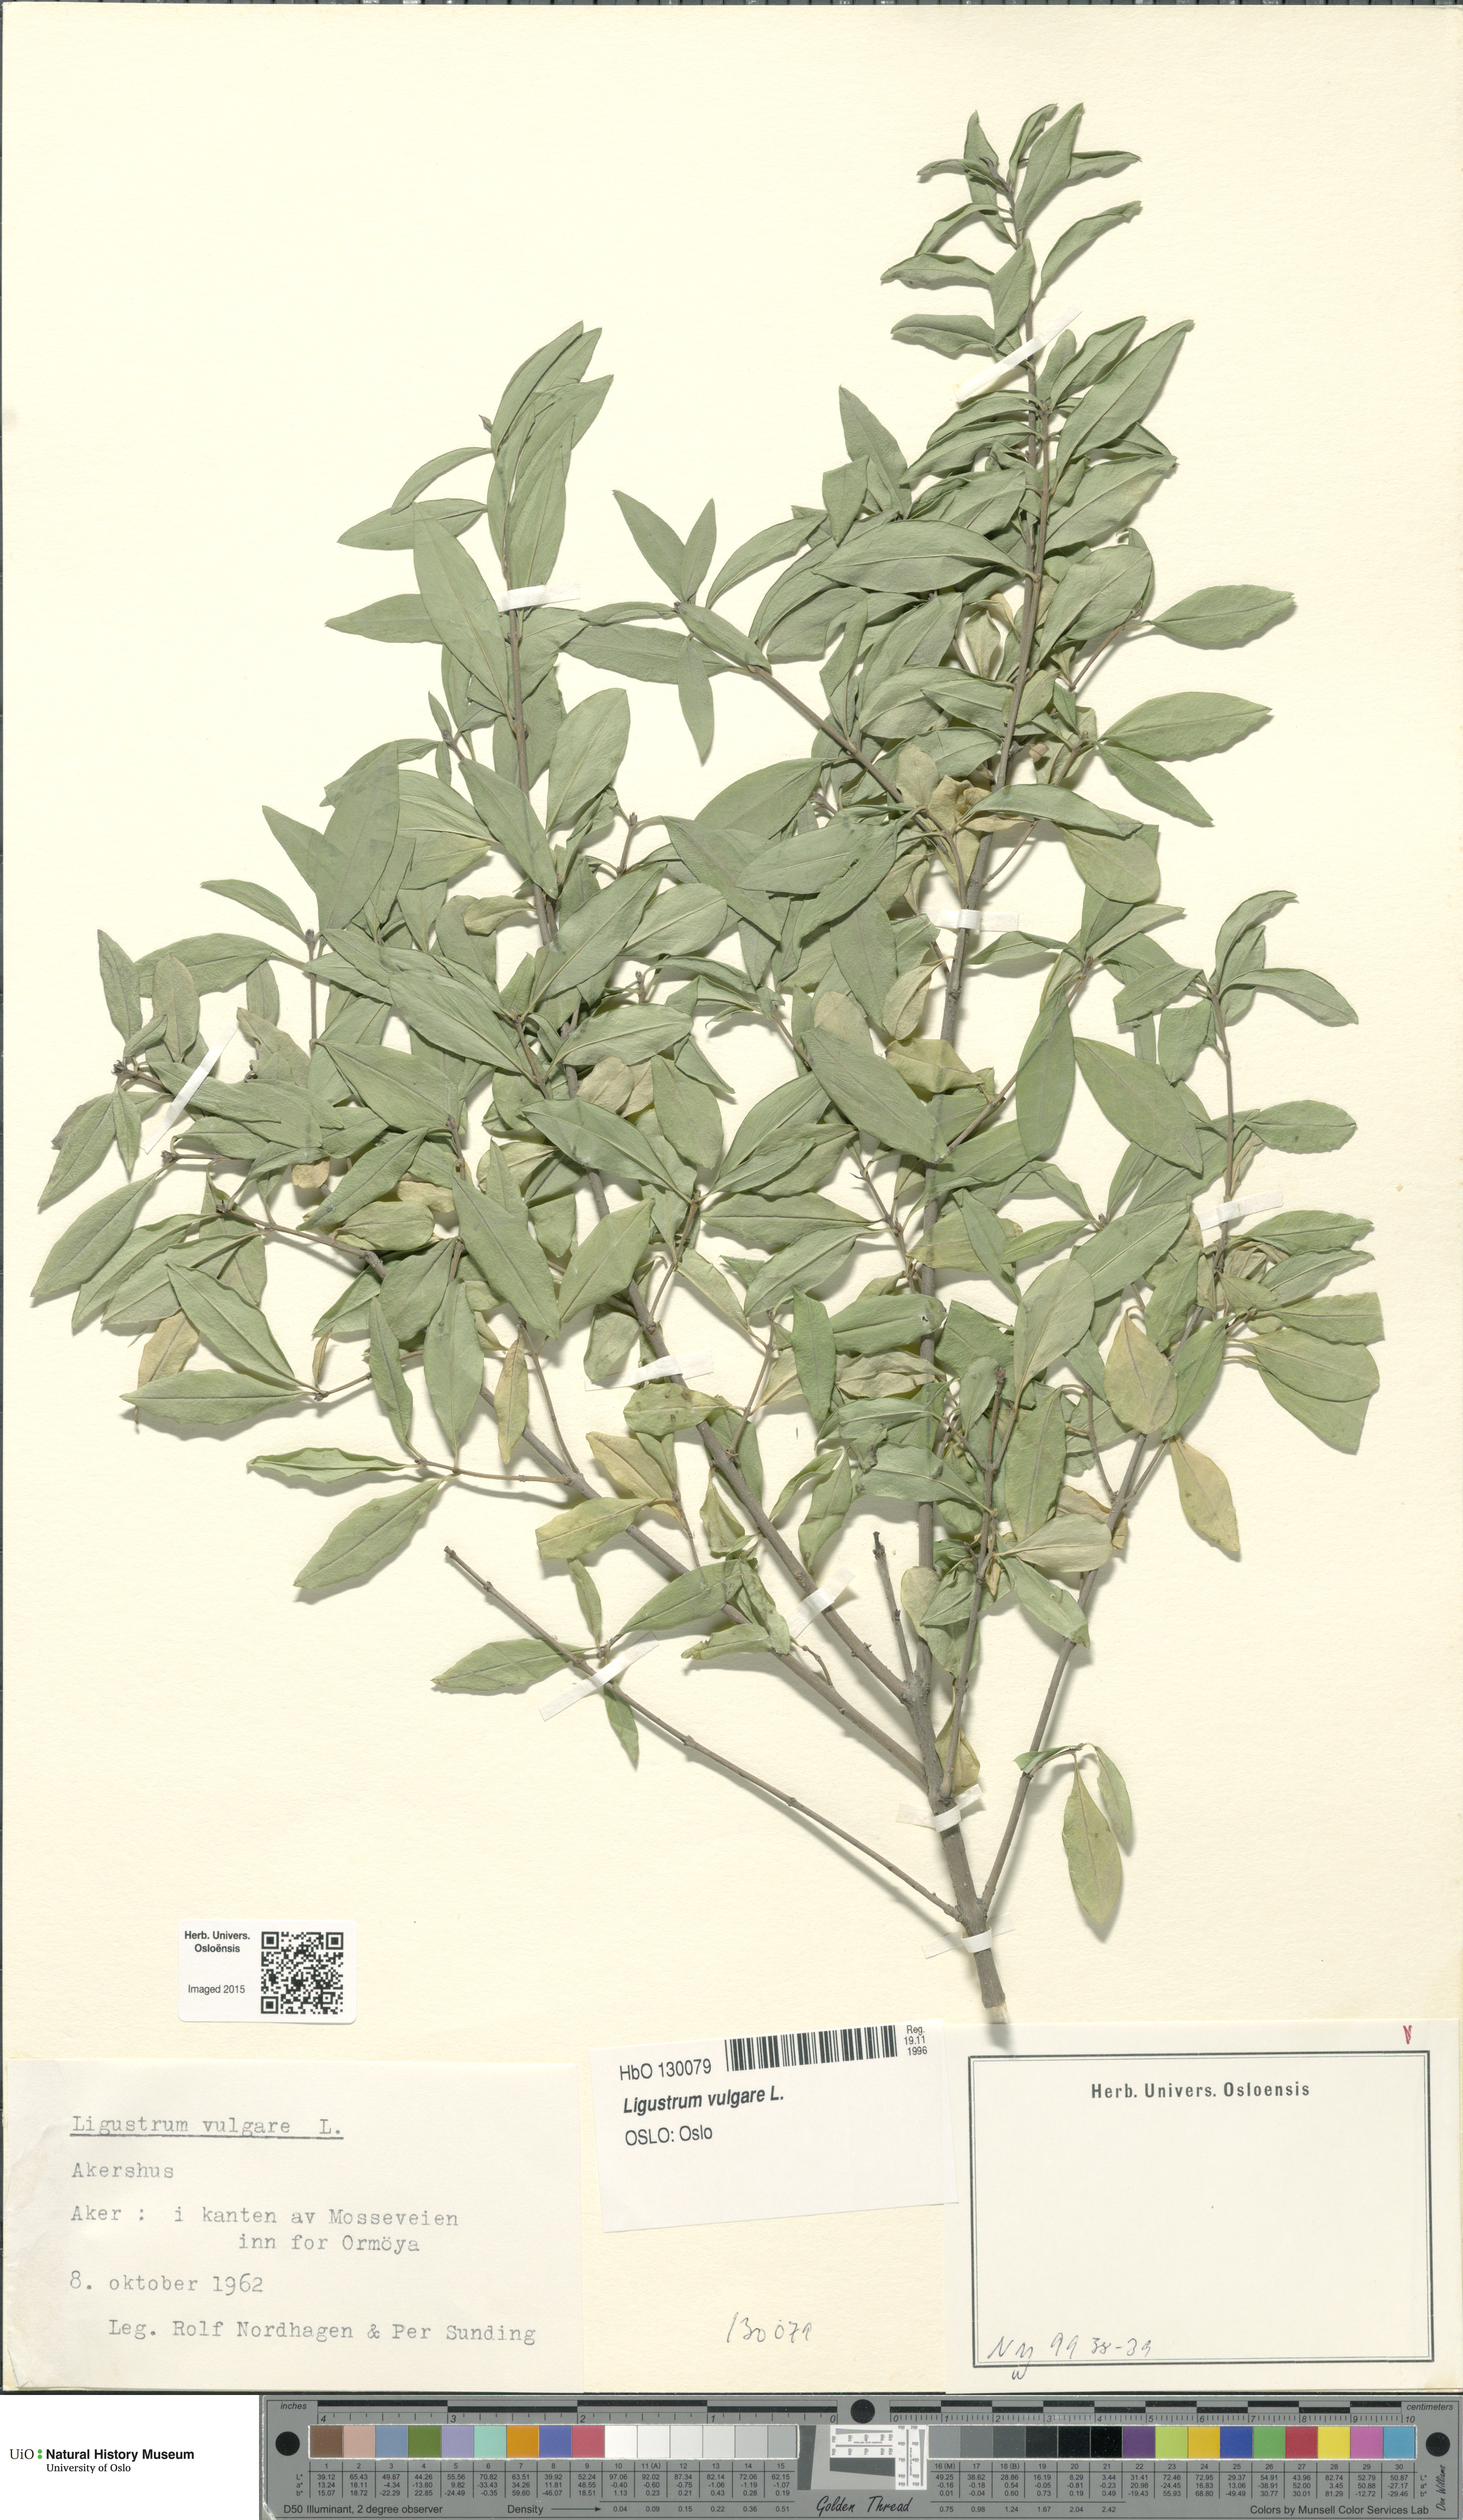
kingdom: Plantae
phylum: Tracheophyta
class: Magnoliopsida
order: Lamiales
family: Oleaceae
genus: Ligustrum
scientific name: Ligustrum vulgare
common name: Wild privet
